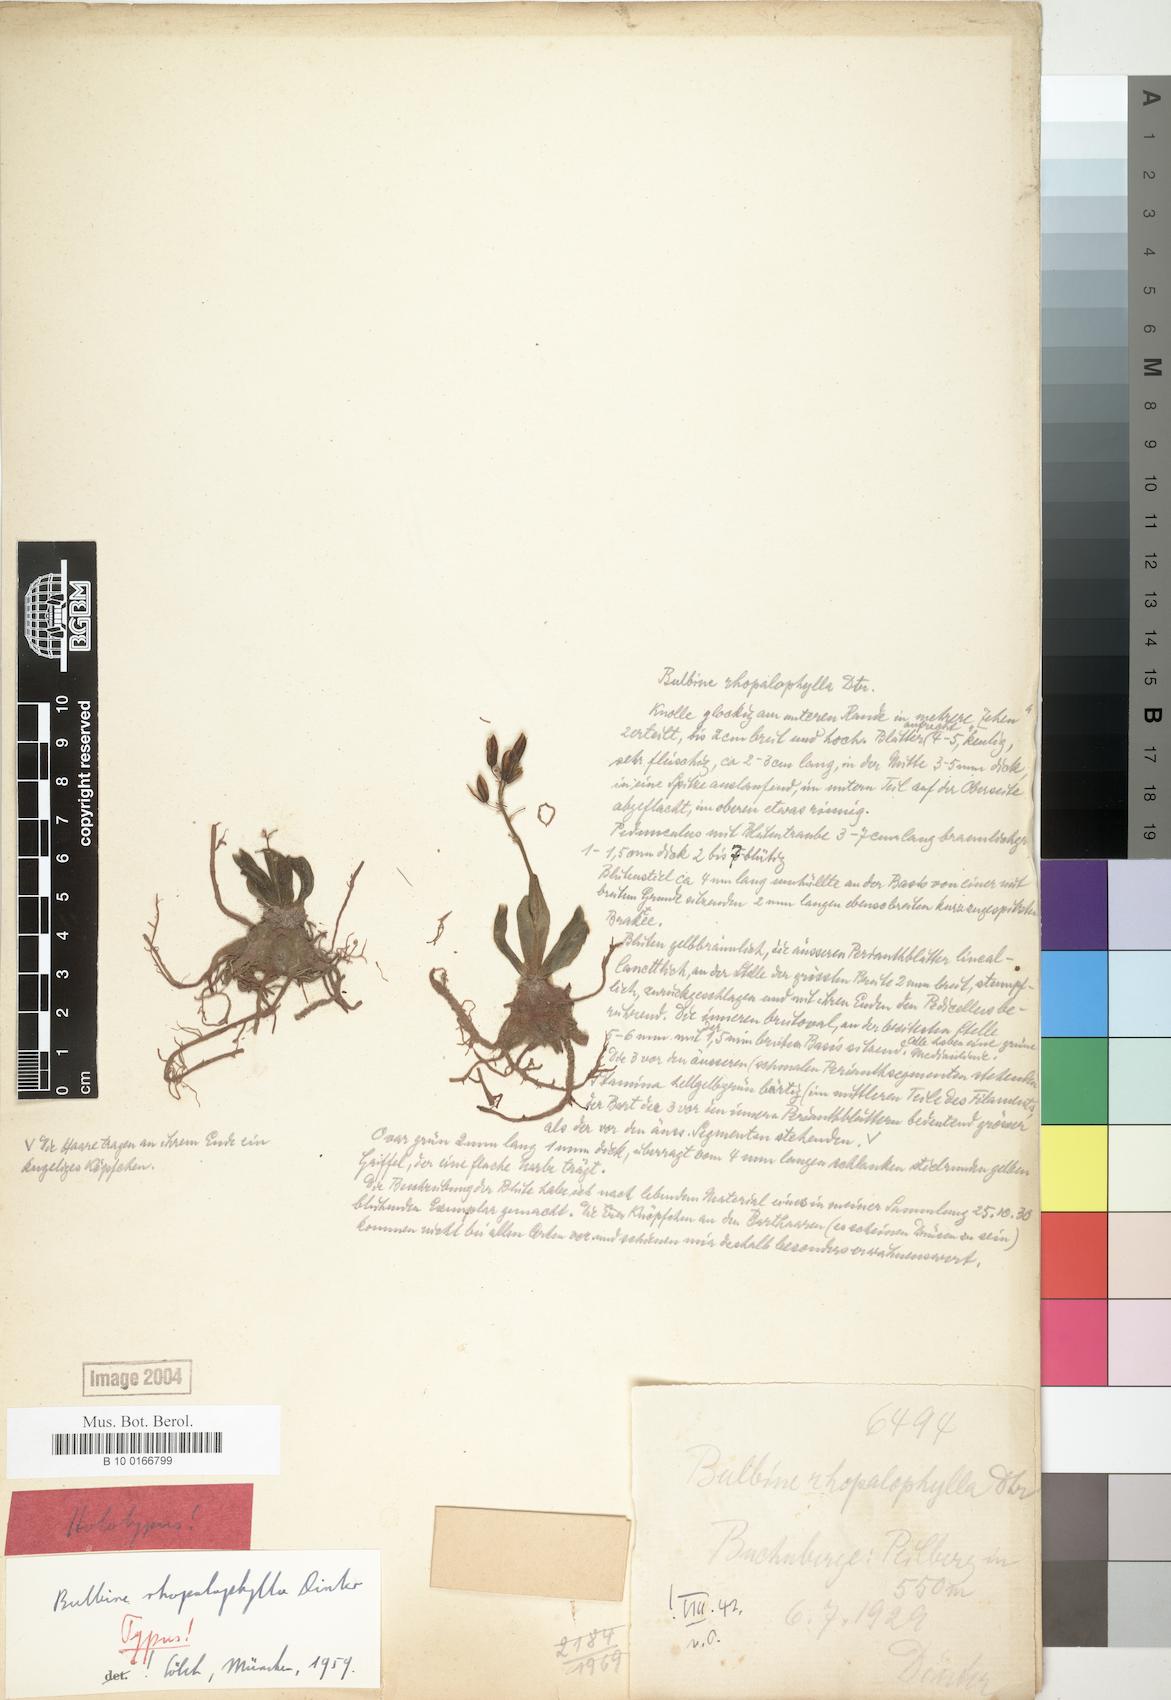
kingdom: Plantae
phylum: Tracheophyta
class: Liliopsida
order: Asparagales
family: Asphodelaceae
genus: Bulbine
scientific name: Bulbine rhopalophylla
